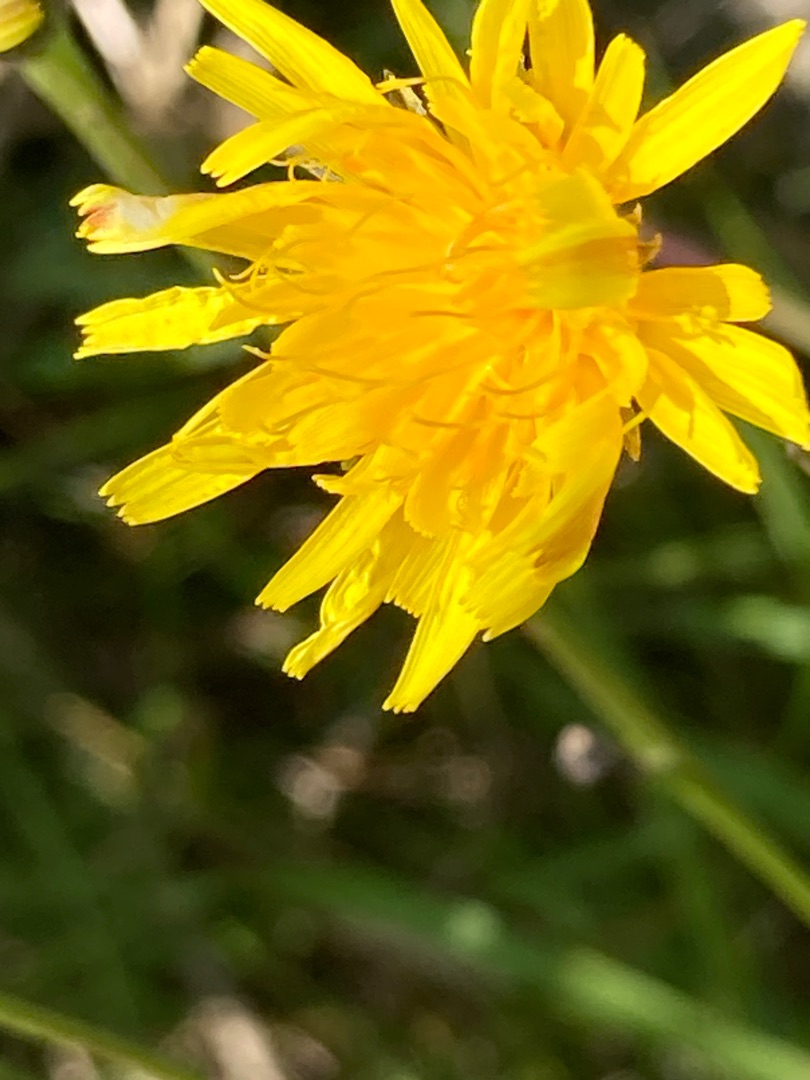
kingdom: Plantae
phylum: Tracheophyta
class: Magnoliopsida
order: Asterales
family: Asteraceae
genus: Scorzoneroides
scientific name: Scorzoneroides autumnalis
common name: Høst-borst
